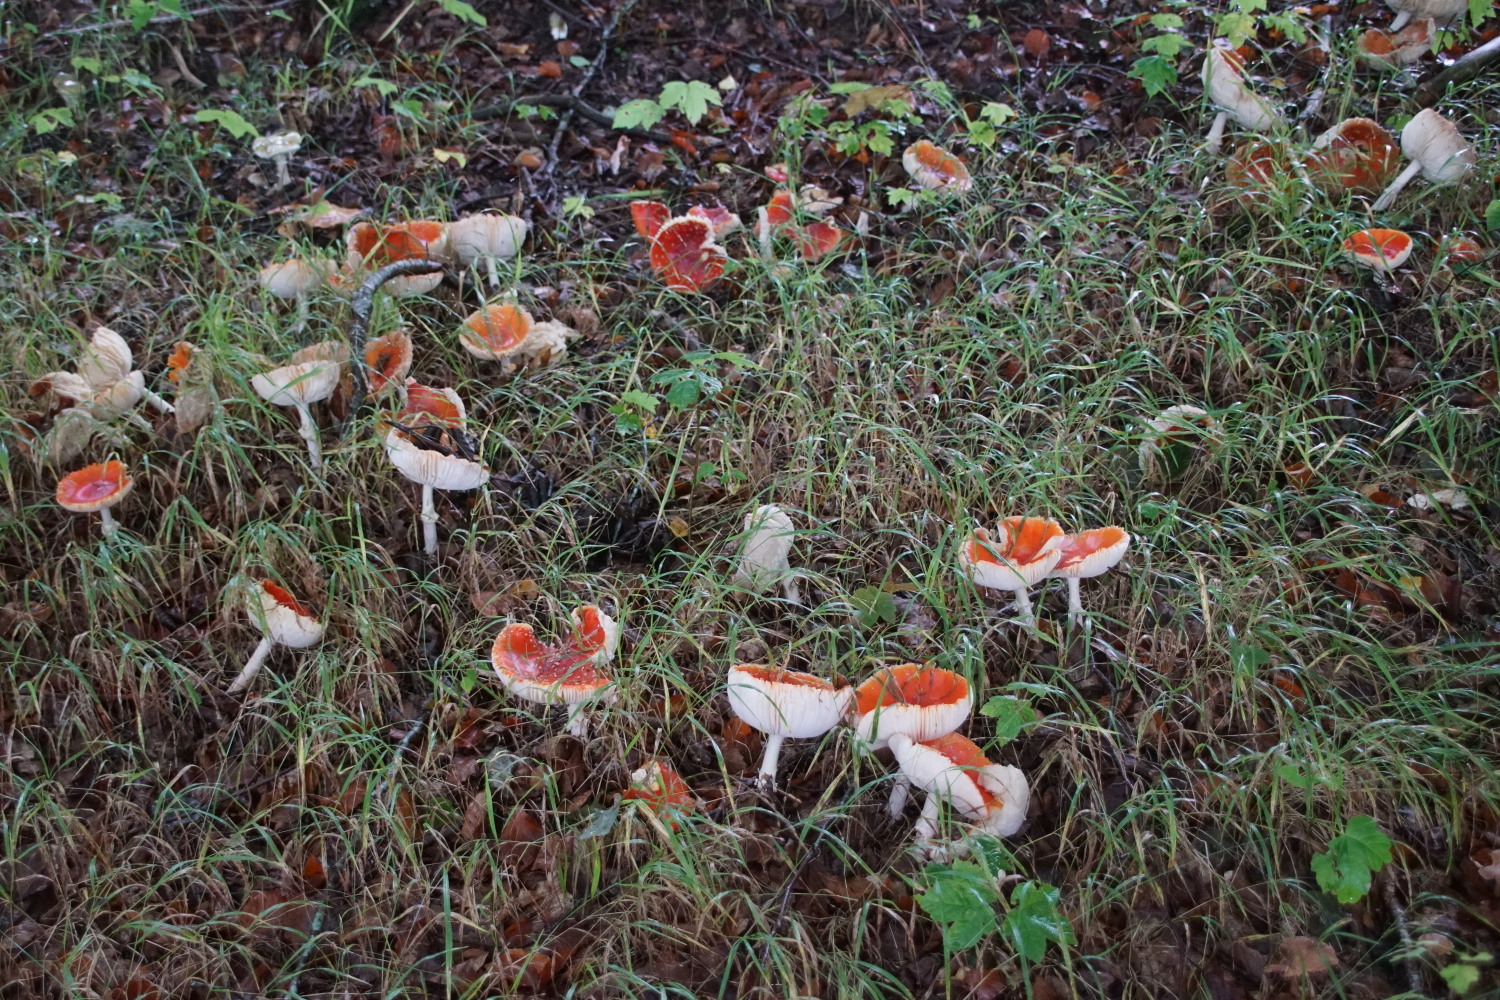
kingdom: Fungi
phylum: Basidiomycota
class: Agaricomycetes
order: Agaricales
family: Amanitaceae
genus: Amanita
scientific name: Amanita muscaria
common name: rød fluesvamp
